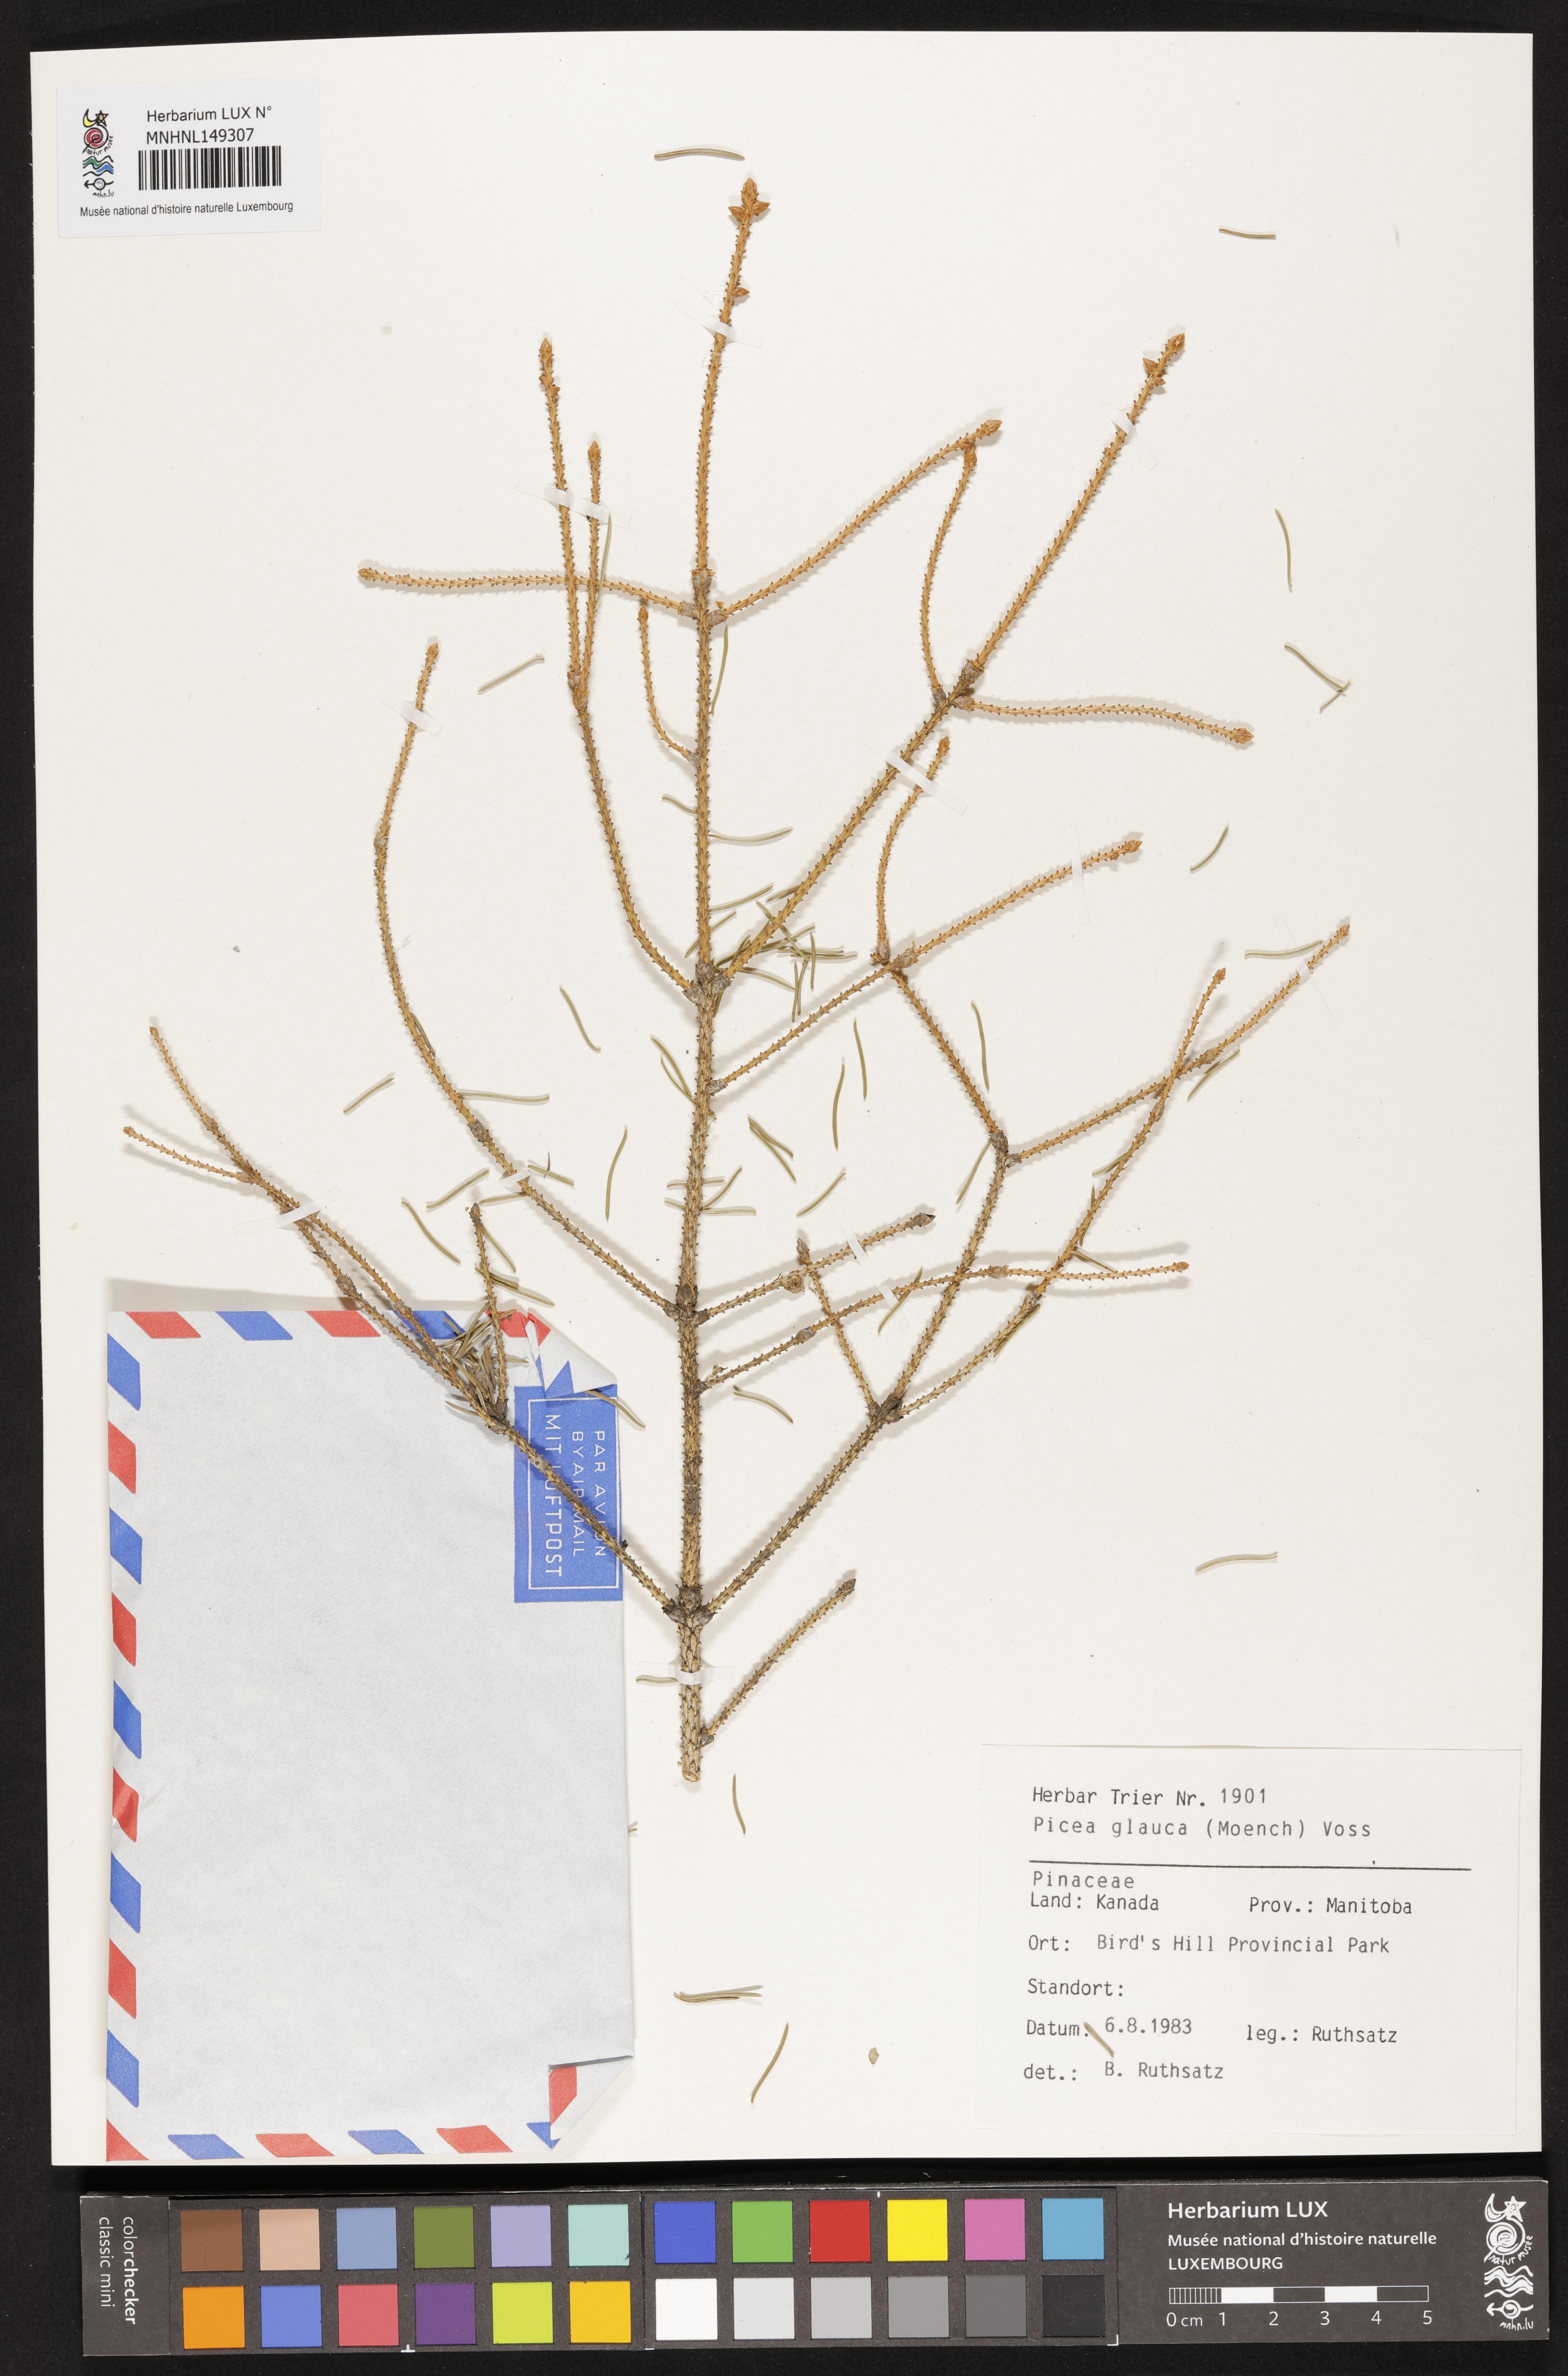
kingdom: Plantae
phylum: Tracheophyta
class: Pinopsida
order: Pinales
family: Pinaceae
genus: Picea
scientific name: Picea glauca
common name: White spruce
